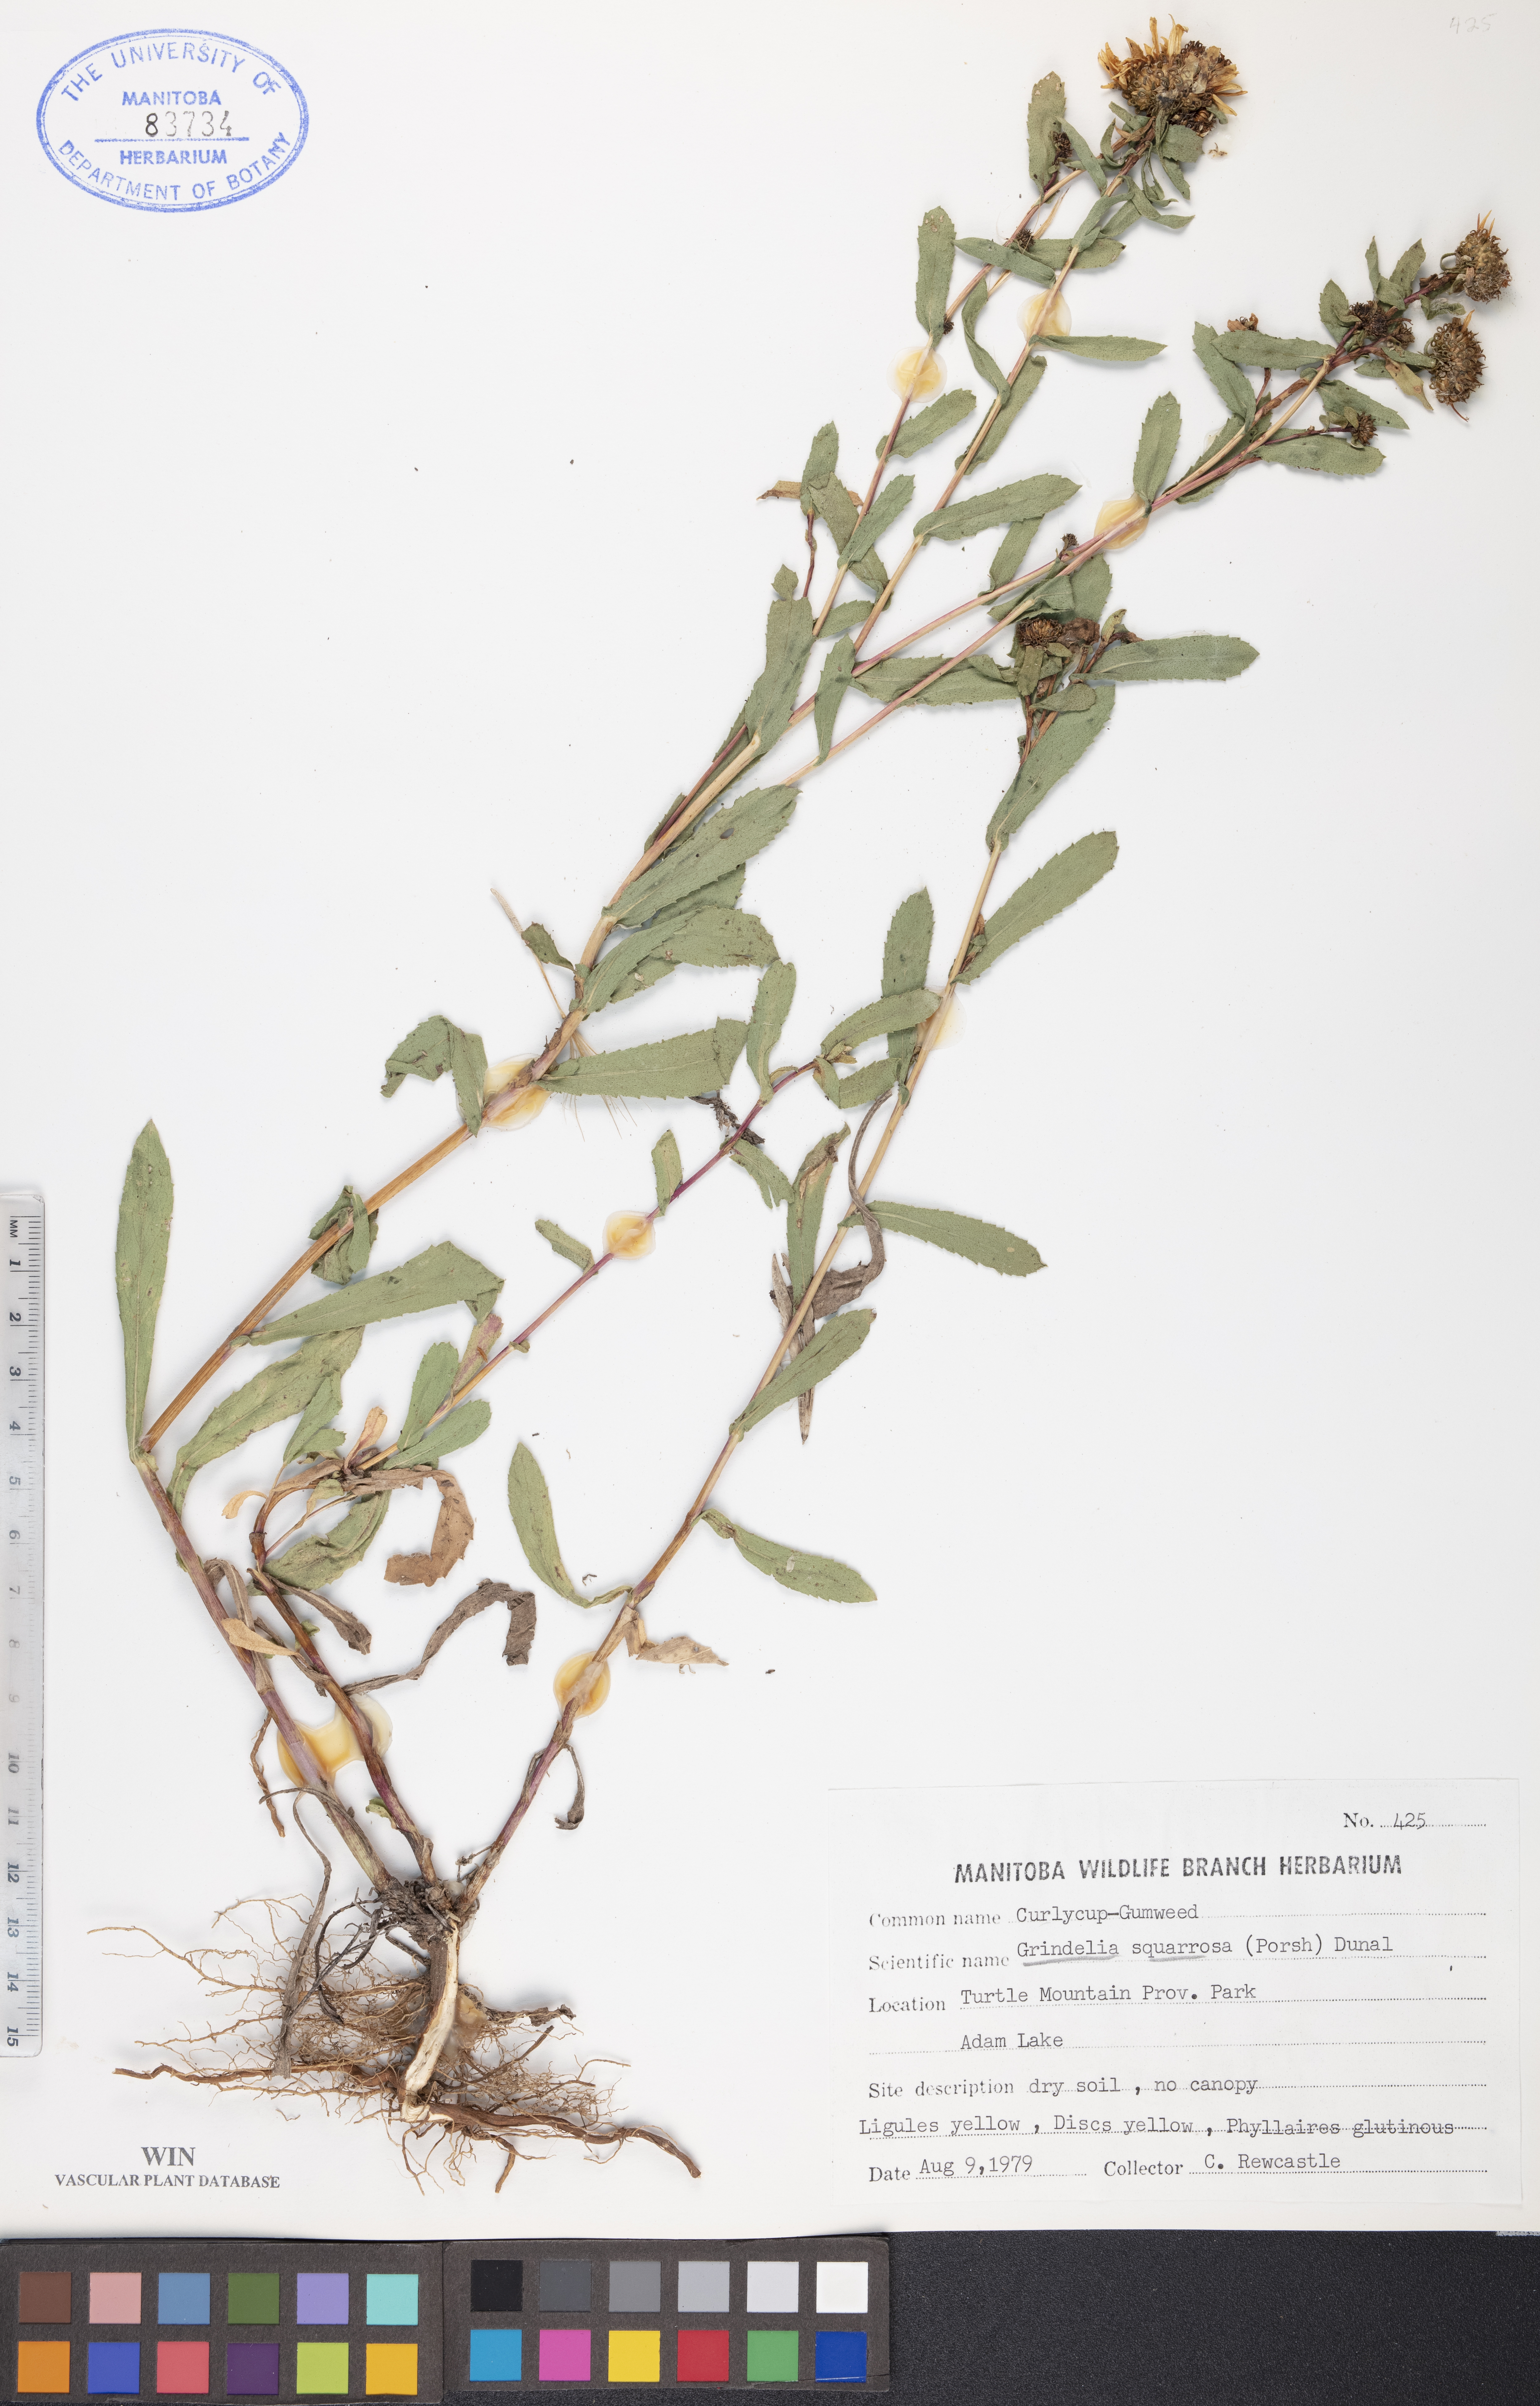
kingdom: Plantae
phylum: Tracheophyta
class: Magnoliopsida
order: Asterales
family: Asteraceae
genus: Grindelia
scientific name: Grindelia squarrosa
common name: Curly-cup gumweed
